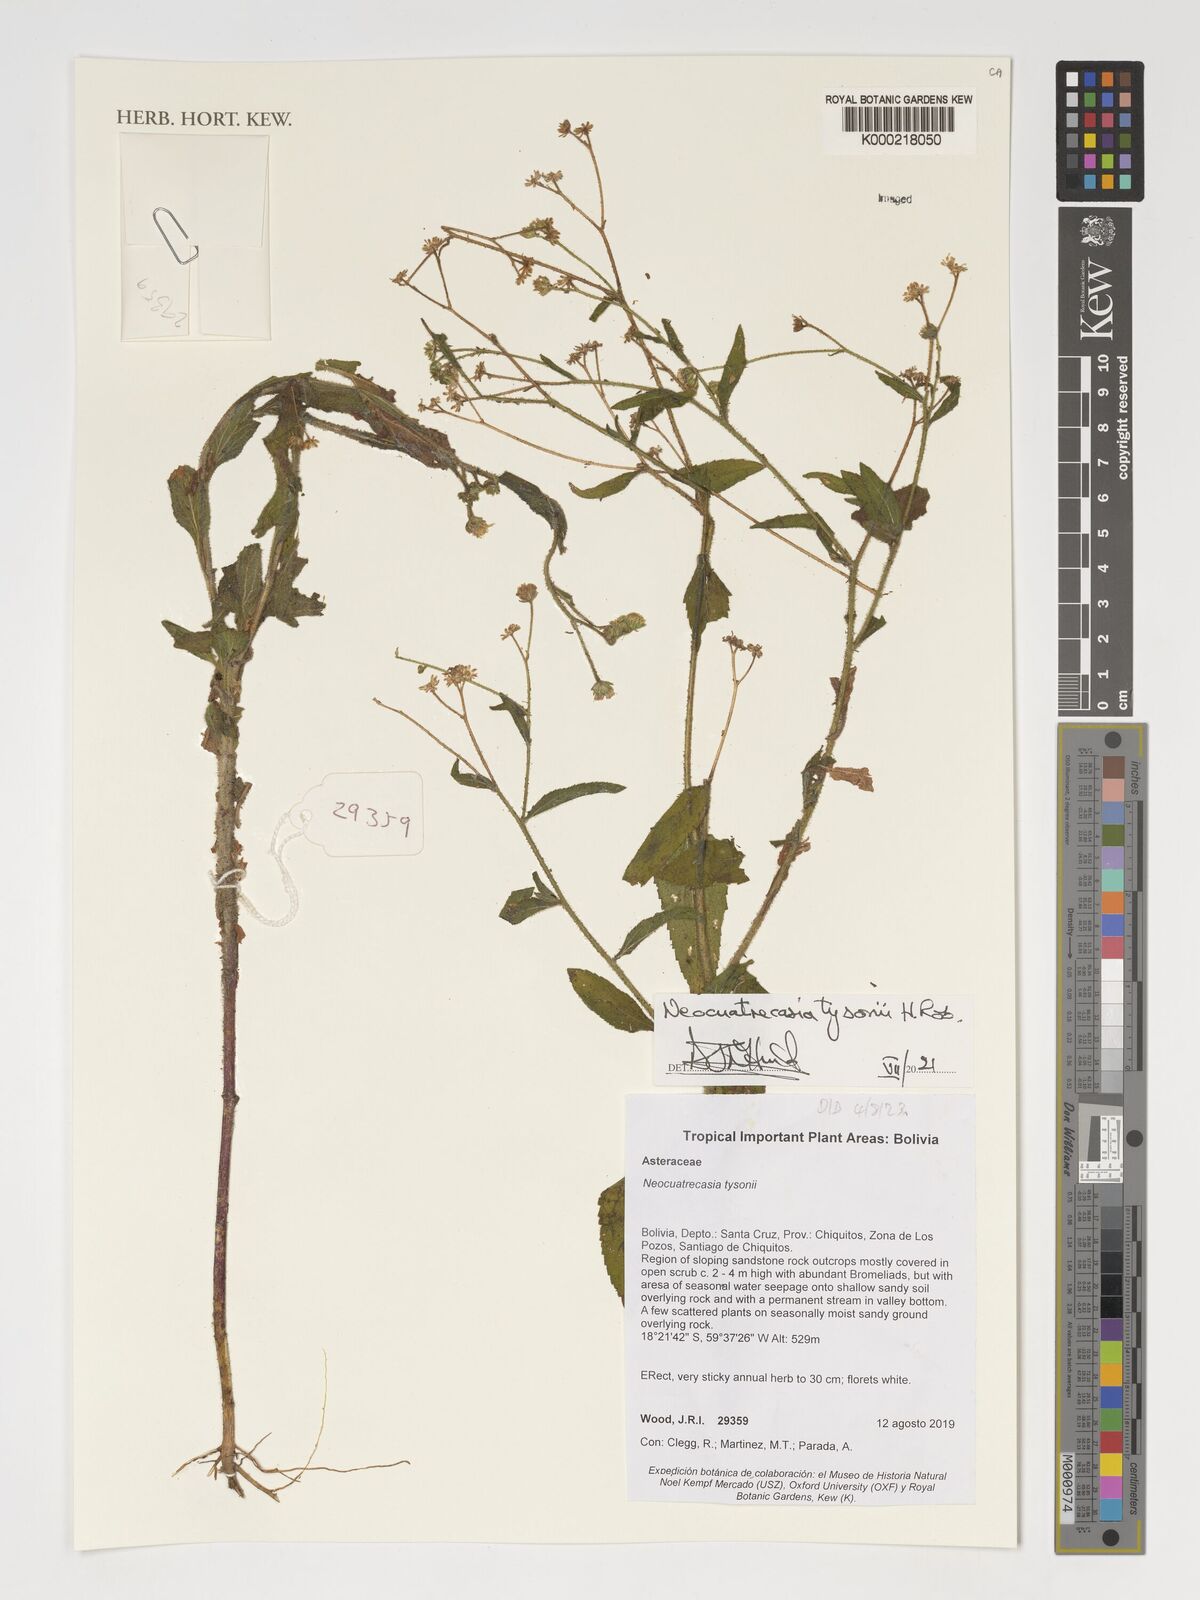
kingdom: Plantae
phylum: Tracheophyta
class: Magnoliopsida
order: Asterales
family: Asteraceae
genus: Neocuatrecasia
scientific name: Neocuatrecasia tysonii
